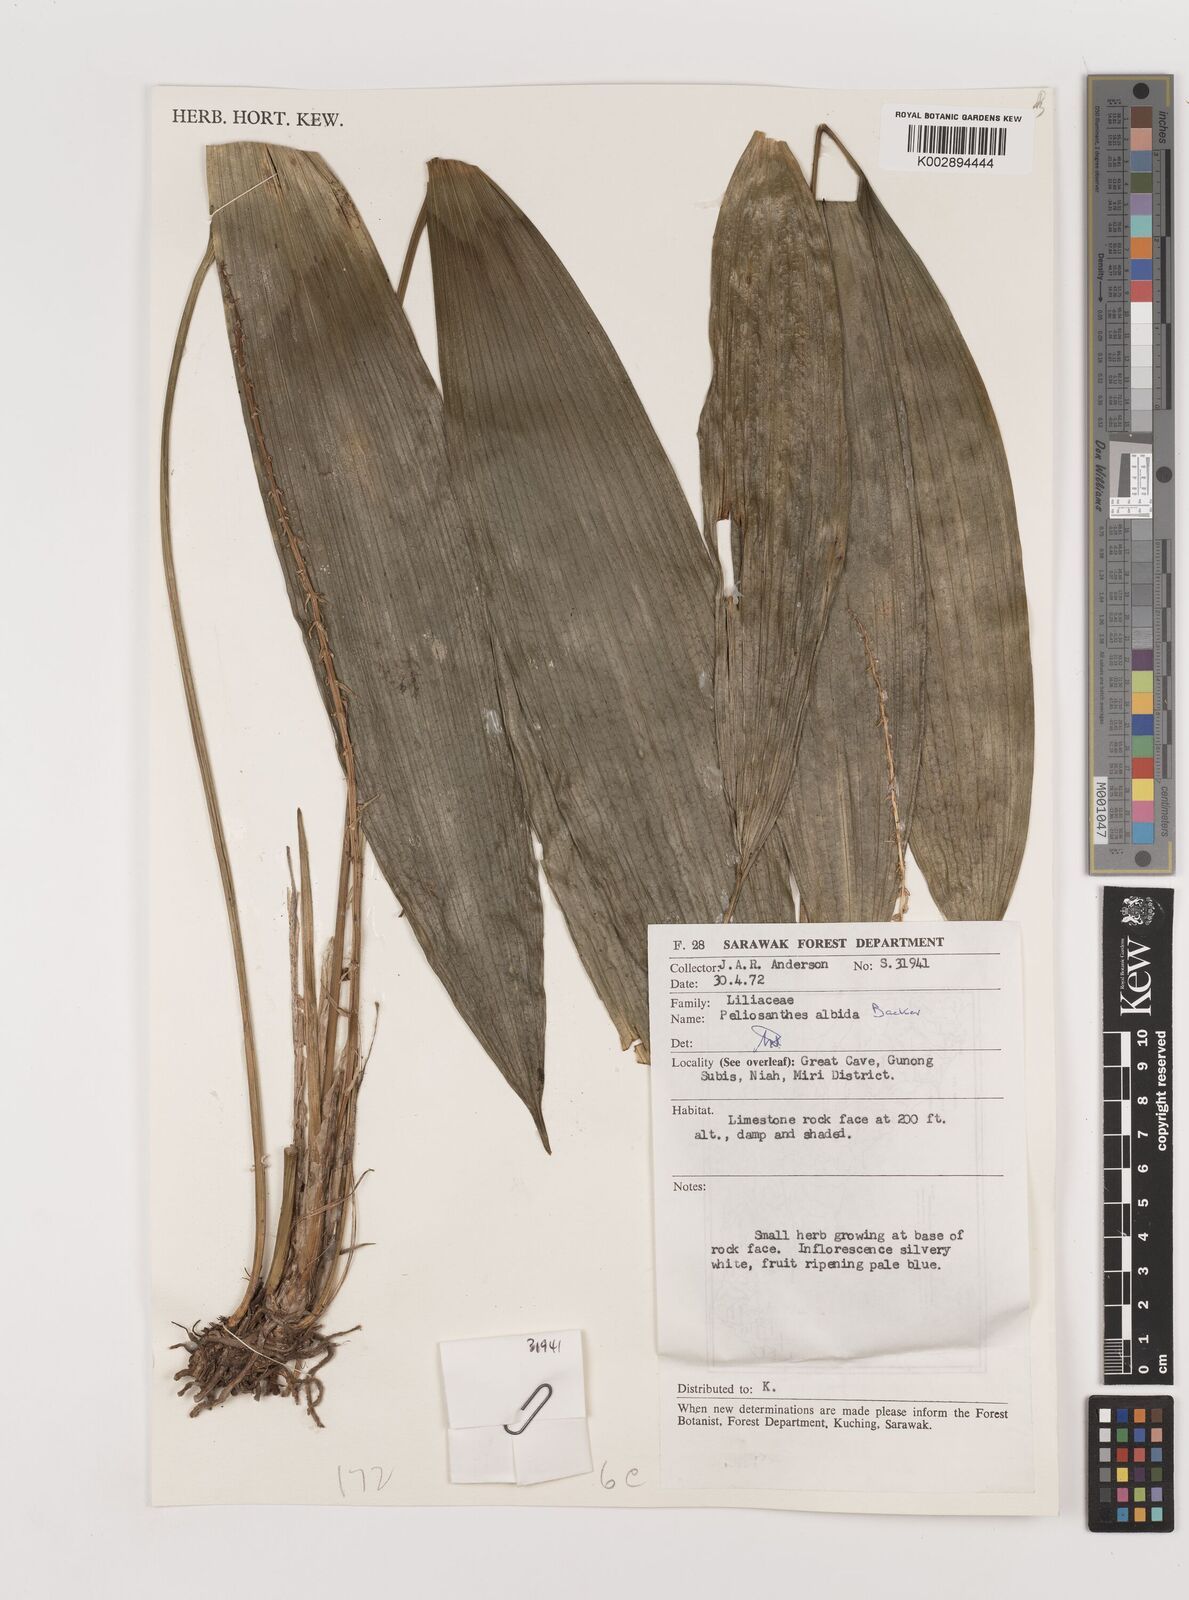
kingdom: Plantae
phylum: Tracheophyta
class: Liliopsida
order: Asparagales
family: Asparagaceae
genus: Peliosanthes
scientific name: Peliosanthes teta
